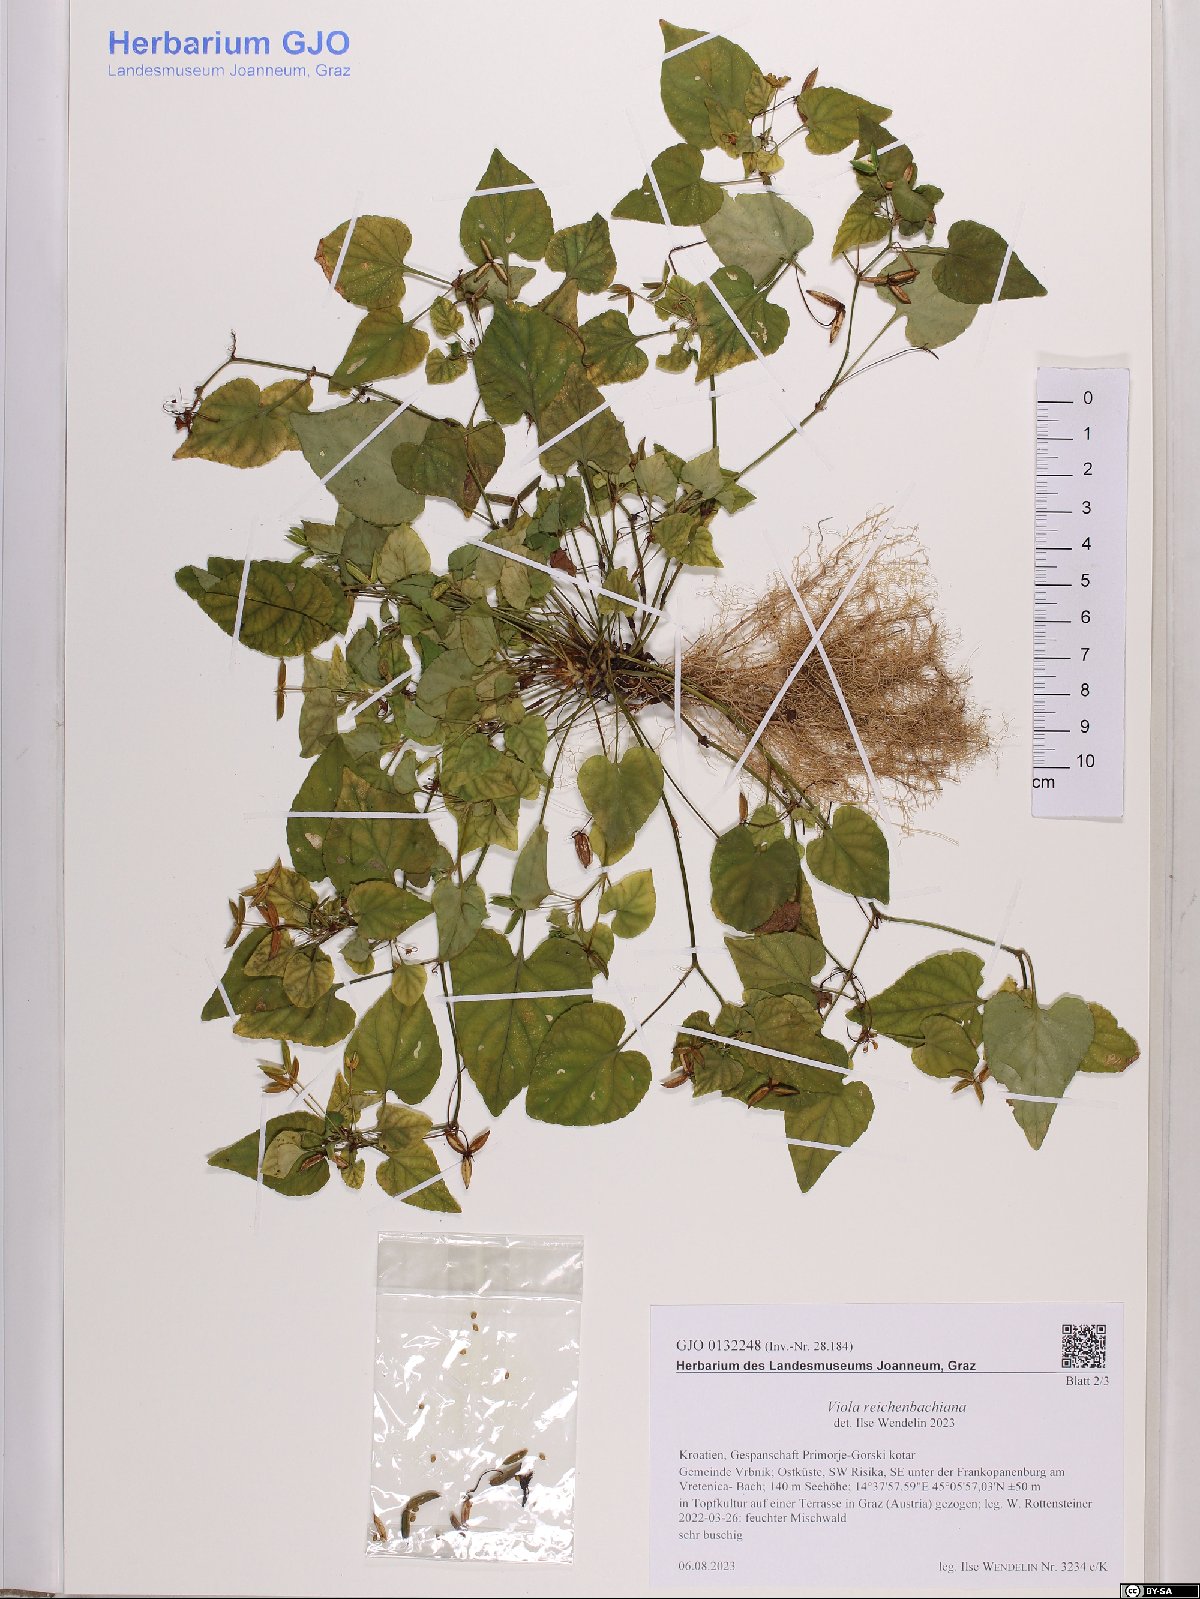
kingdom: Plantae
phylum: Tracheophyta
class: Magnoliopsida
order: Malpighiales
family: Violaceae
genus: Viola
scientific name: Viola reichenbachiana
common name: Early dog-violet
